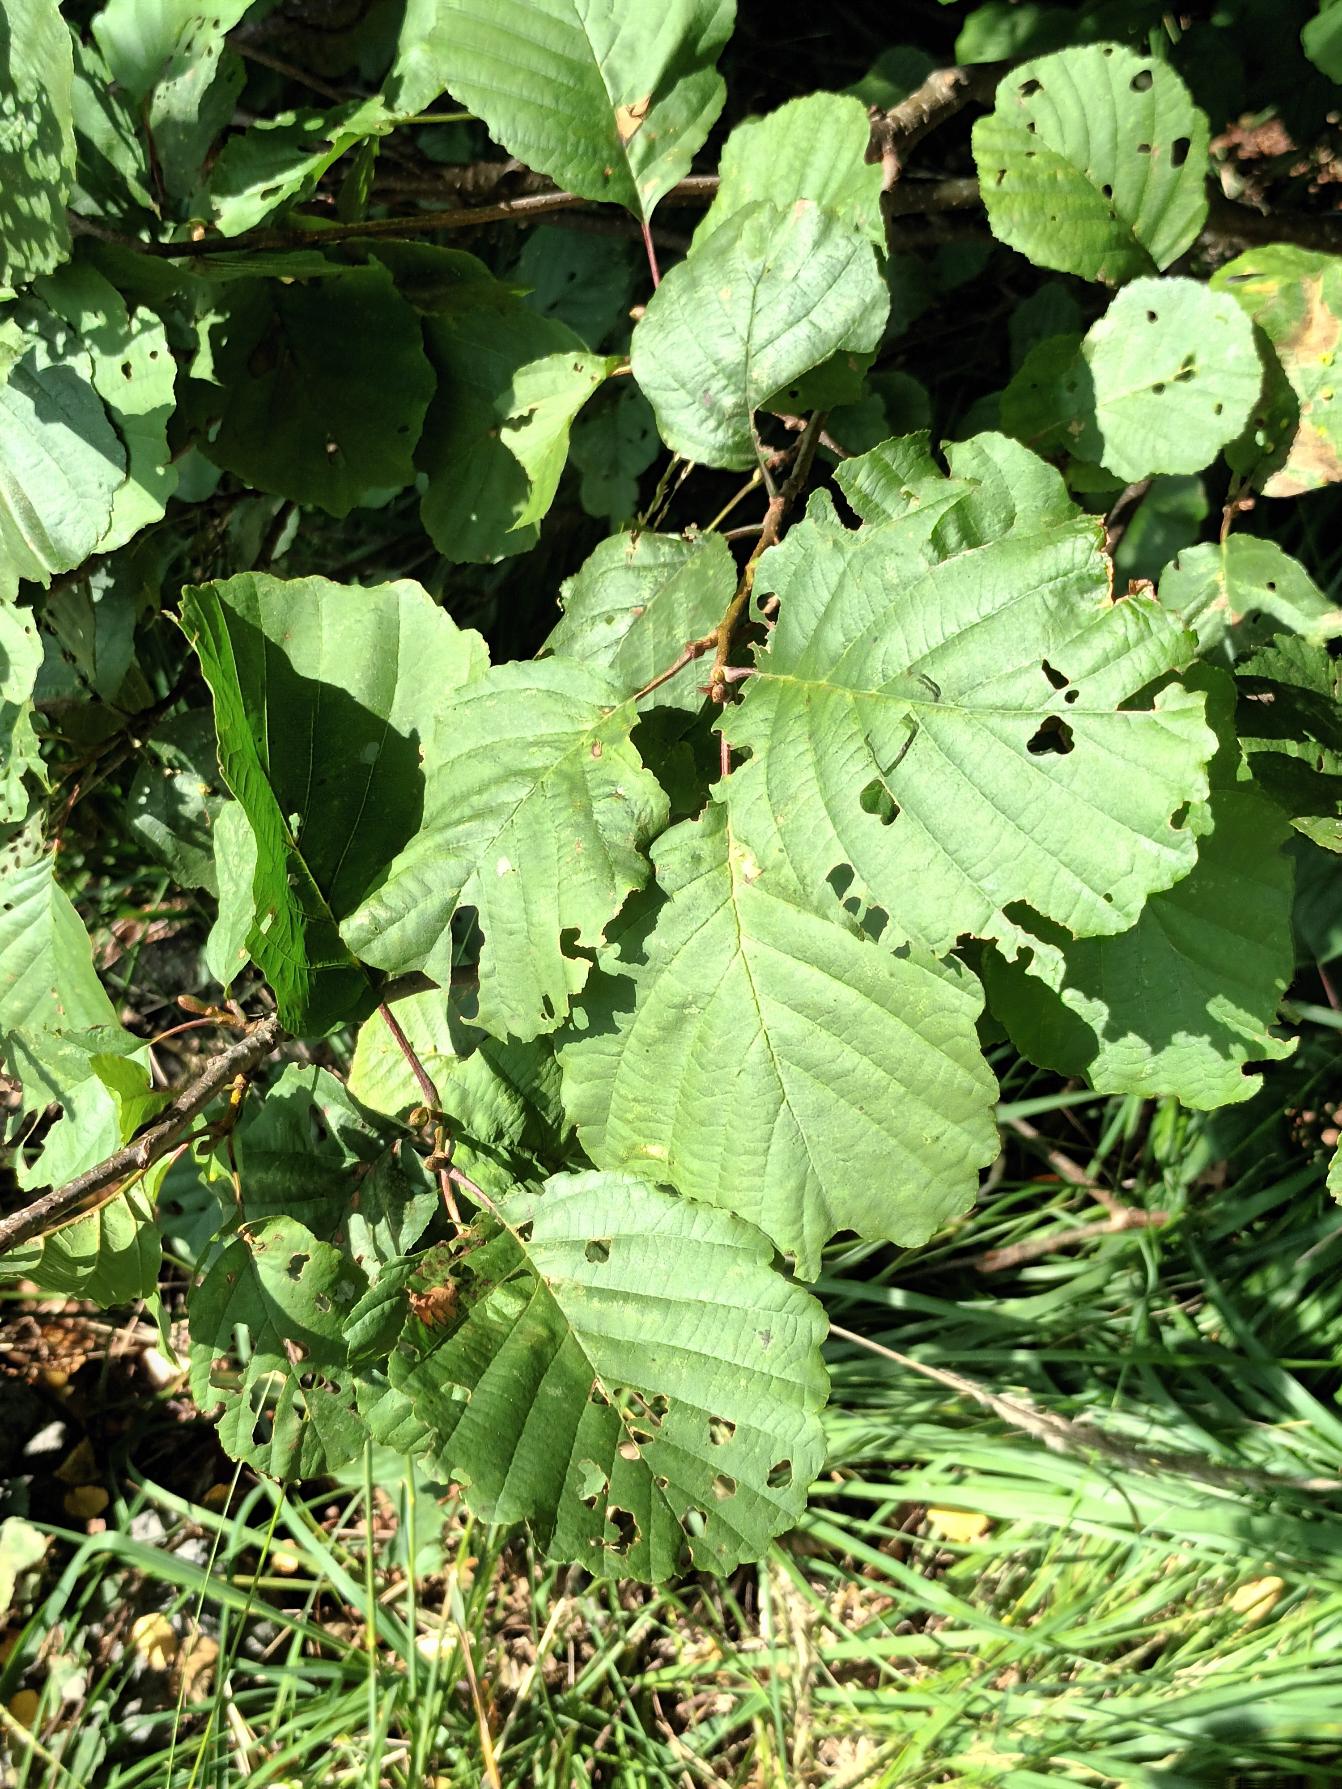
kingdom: Plantae
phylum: Tracheophyta
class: Magnoliopsida
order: Fagales
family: Betulaceae
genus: Alnus
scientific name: Alnus glutinosa
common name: Rød-el
